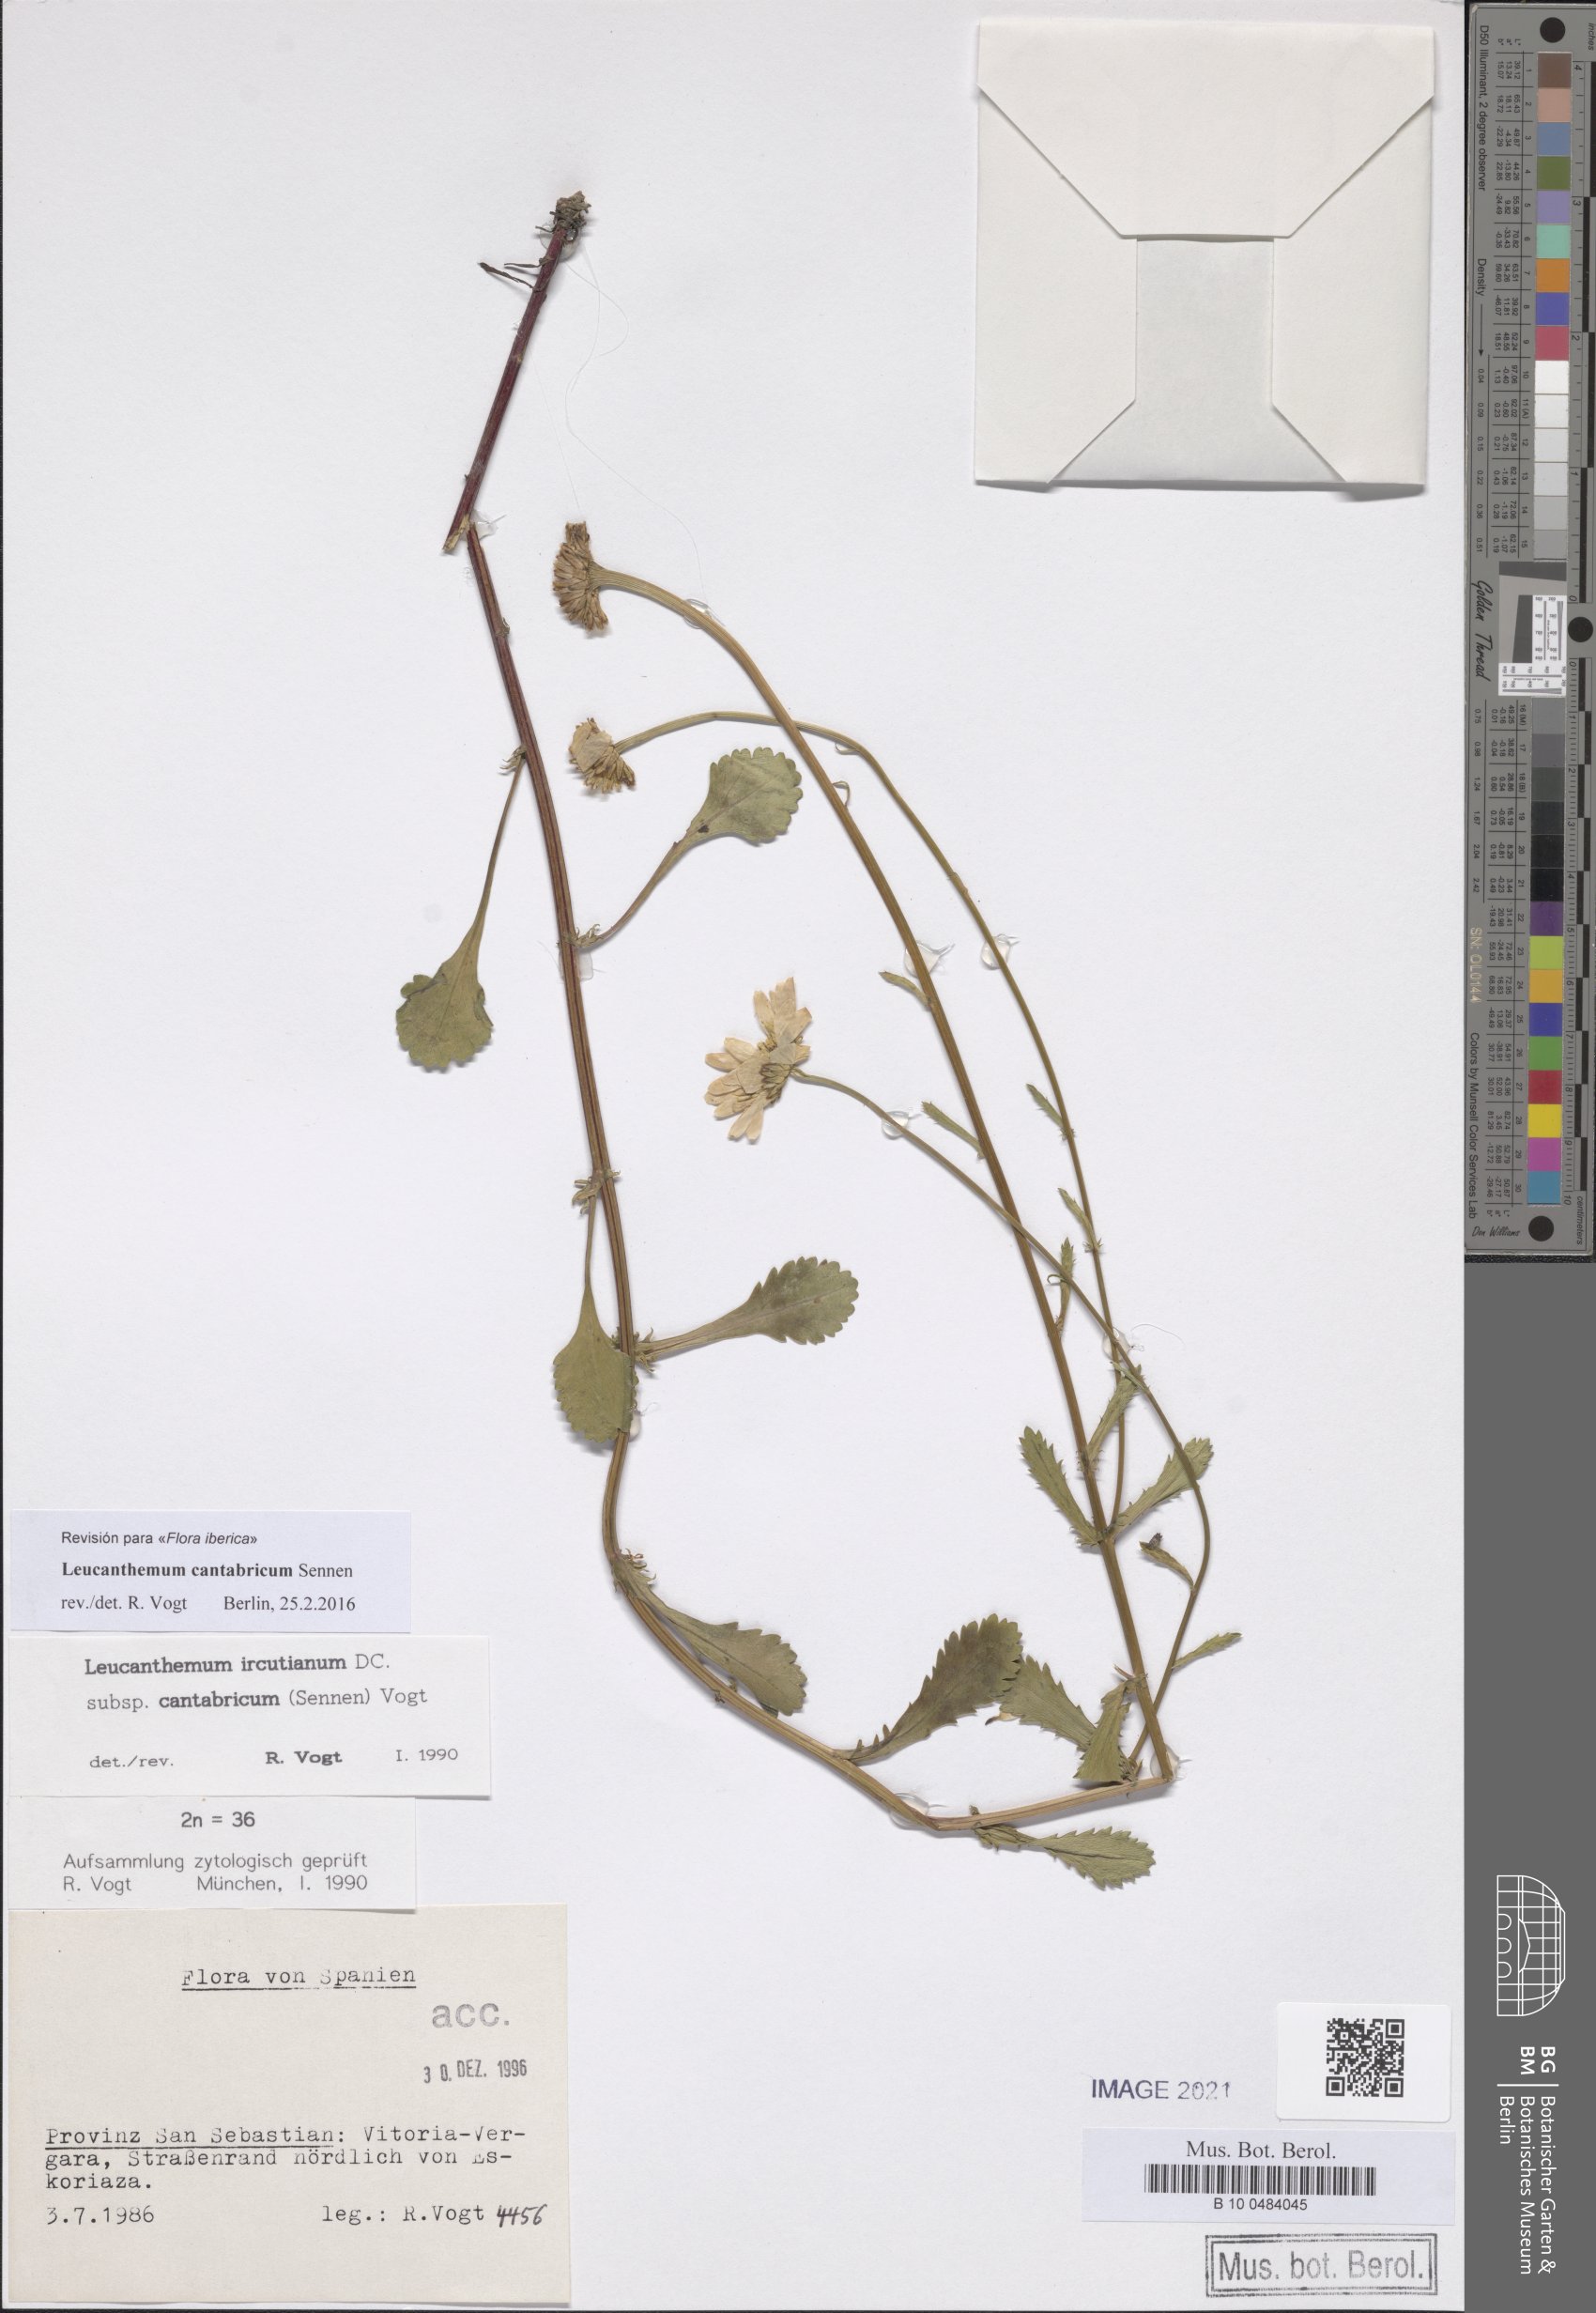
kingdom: Plantae
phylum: Tracheophyta
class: Magnoliopsida
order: Asterales
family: Asteraceae
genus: Leucanthemum
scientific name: Leucanthemum cantabricum
